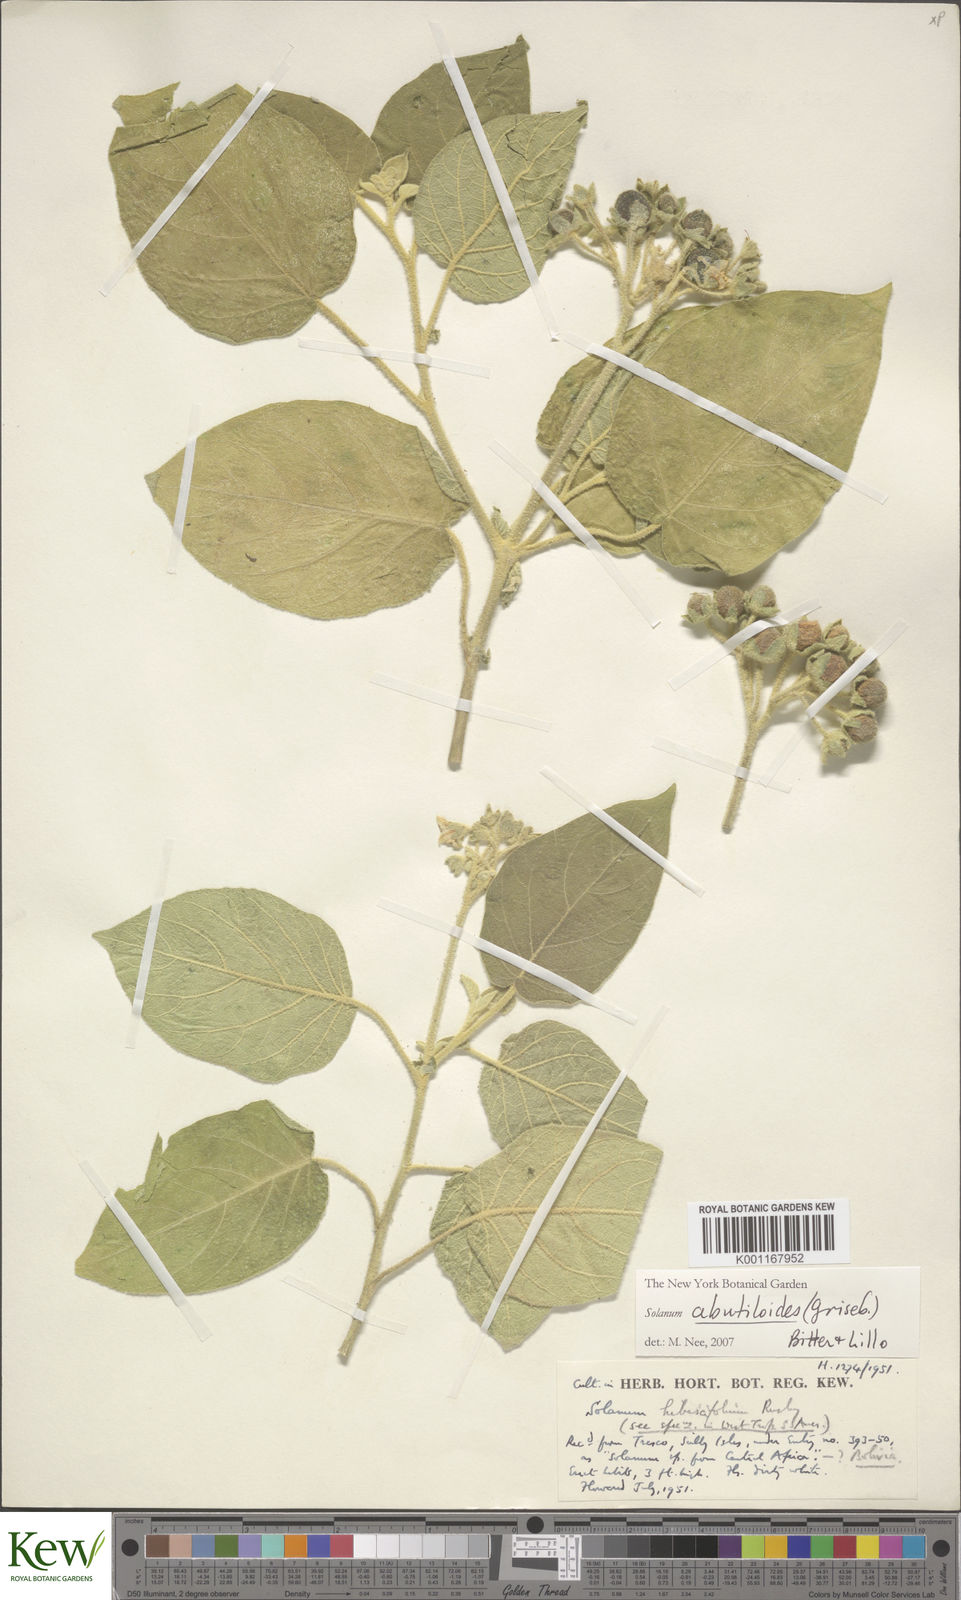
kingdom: Plantae
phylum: Tracheophyta
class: Magnoliopsida
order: Solanales
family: Solanaceae
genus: Solanum
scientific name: Solanum abutiloides
